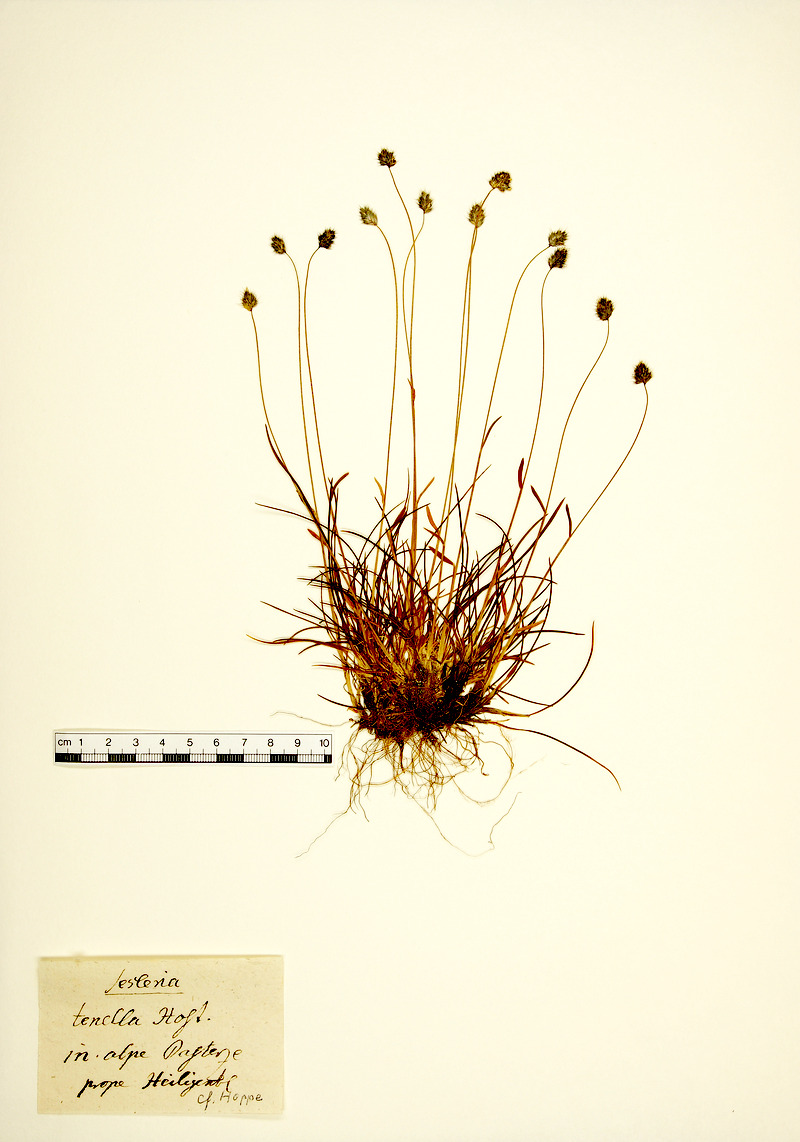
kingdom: Plantae
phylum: Tracheophyta
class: Liliopsida
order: Poales
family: Poaceae
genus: Psilathera
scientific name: Psilathera ovata
